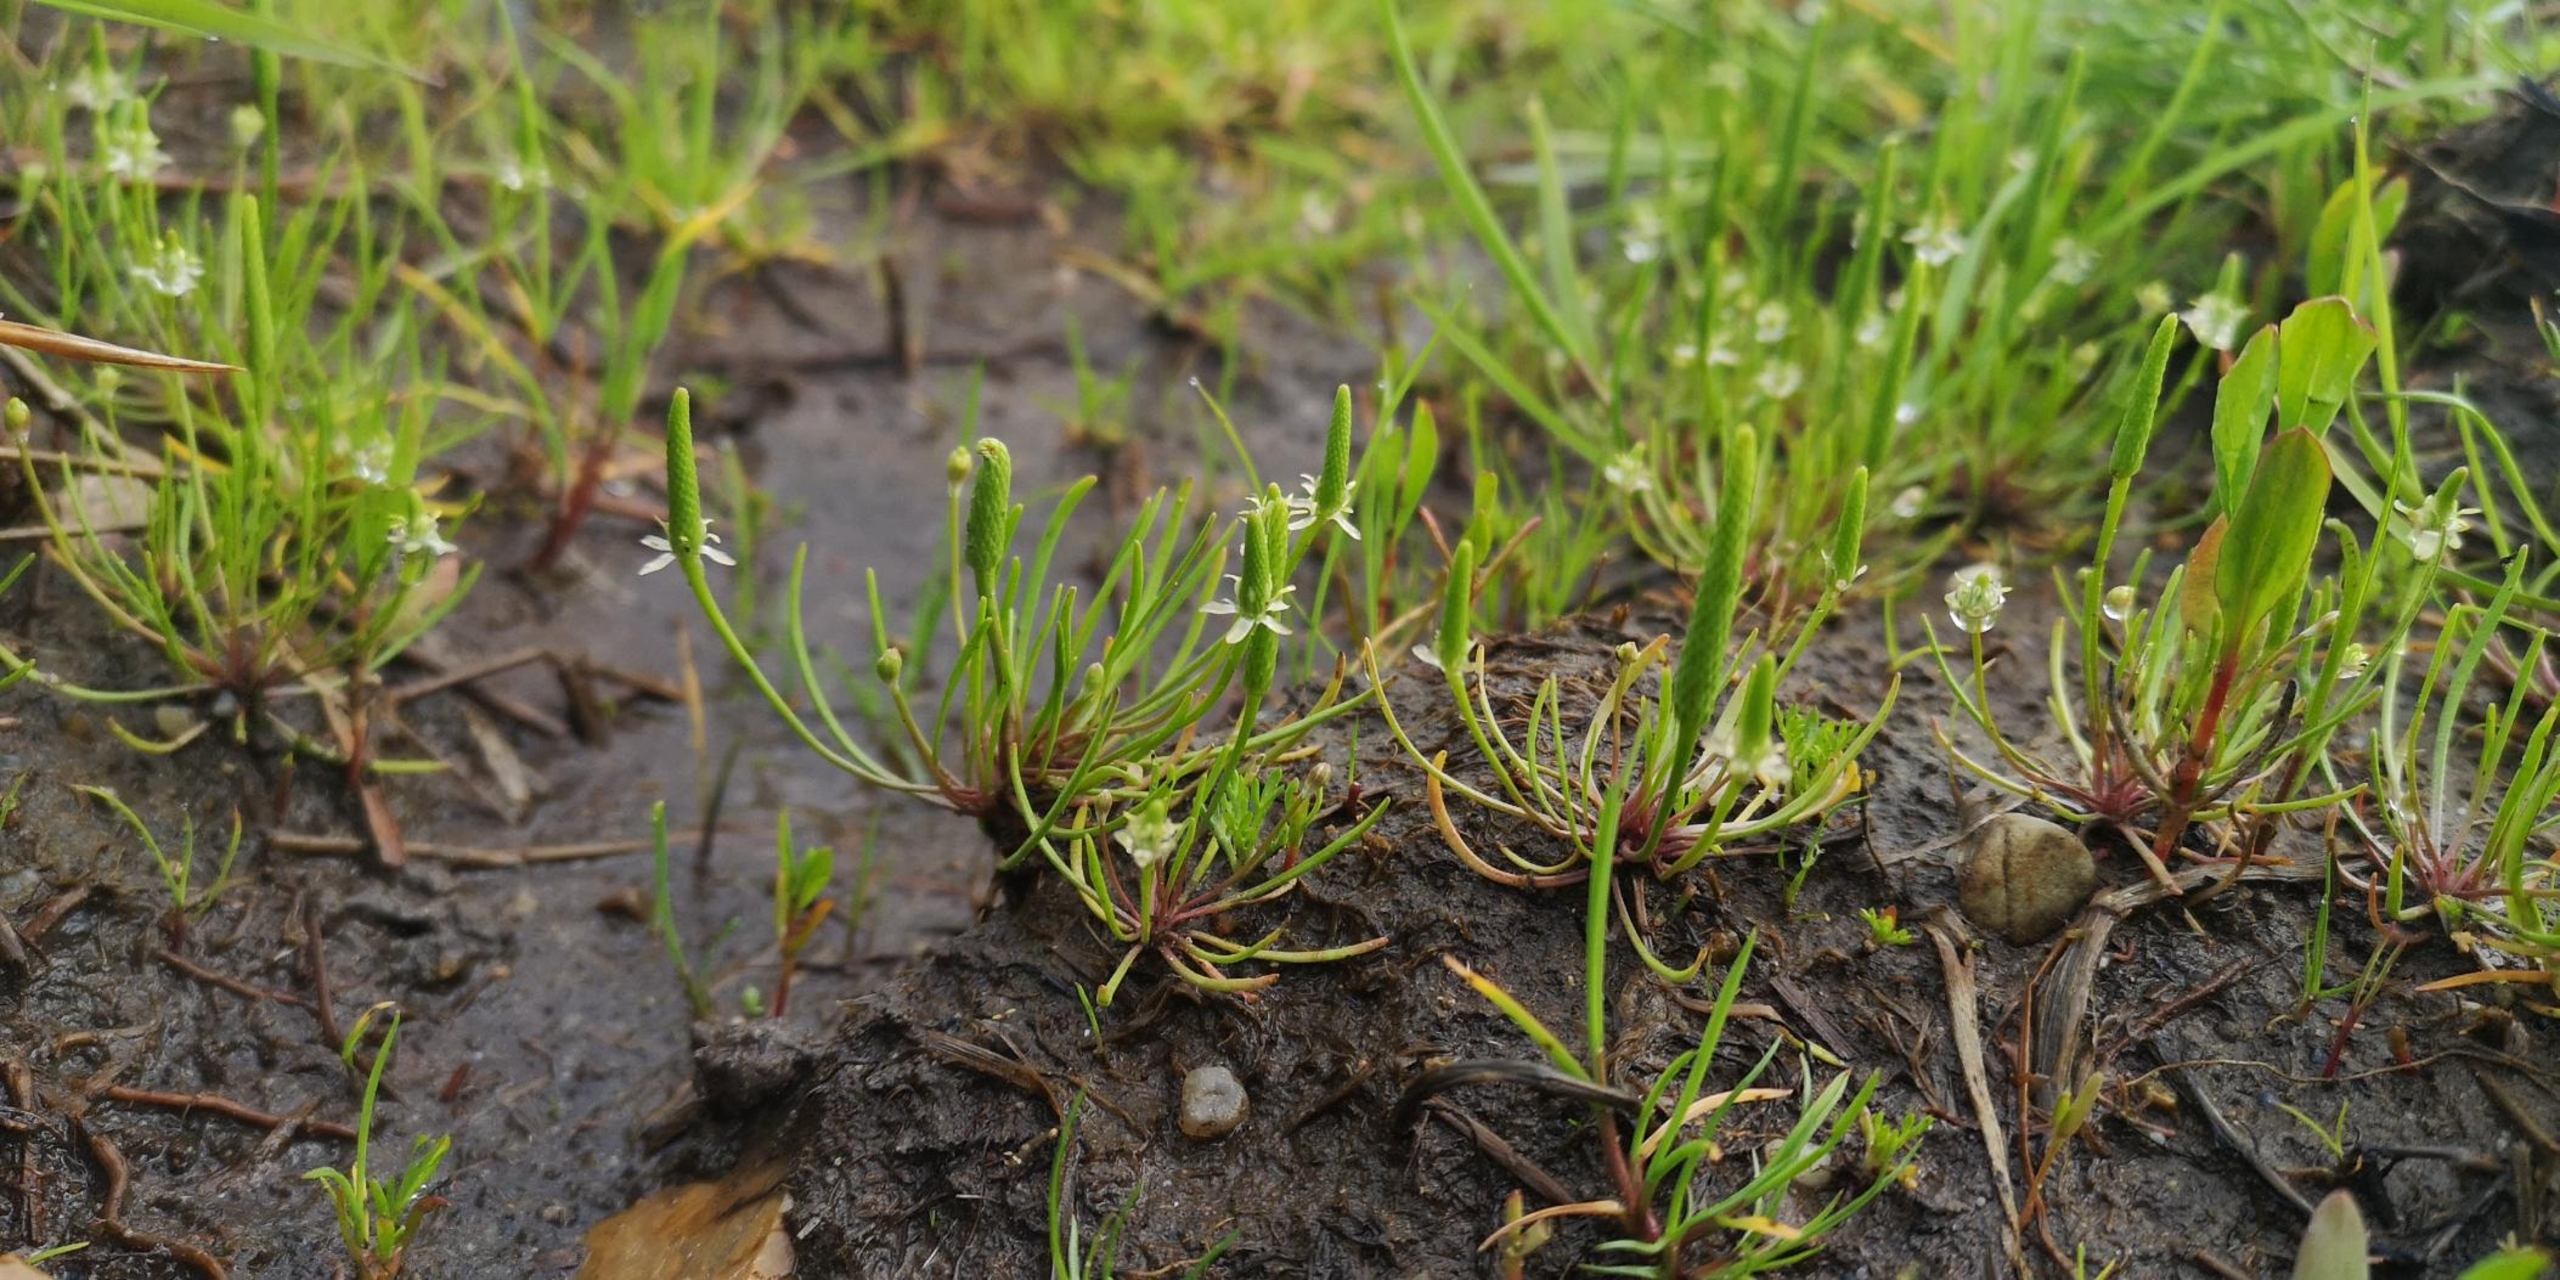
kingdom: Plantae
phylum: Tracheophyta
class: Magnoliopsida
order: Ranunculales
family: Ranunculaceae
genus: Myosurus
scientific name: Myosurus minimus
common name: Musehale
